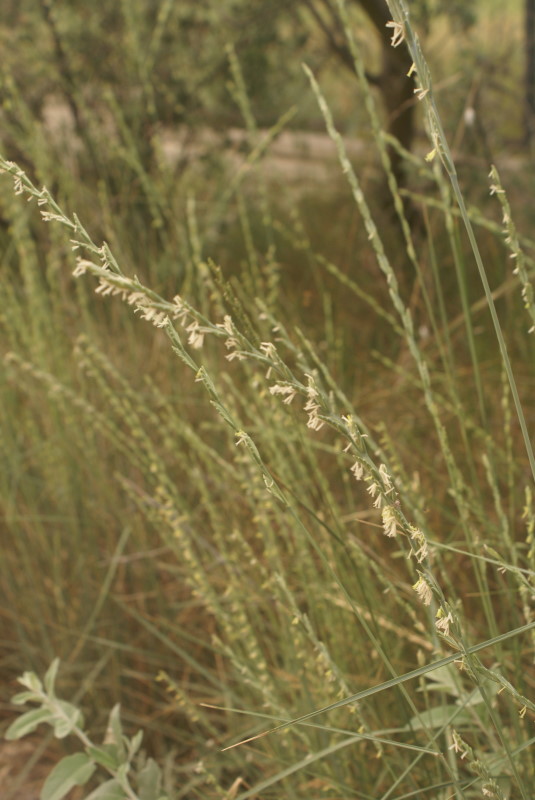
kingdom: Plantae
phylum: Tracheophyta
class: Liliopsida
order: Poales
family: Poaceae
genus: Elymus
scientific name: Elymus
